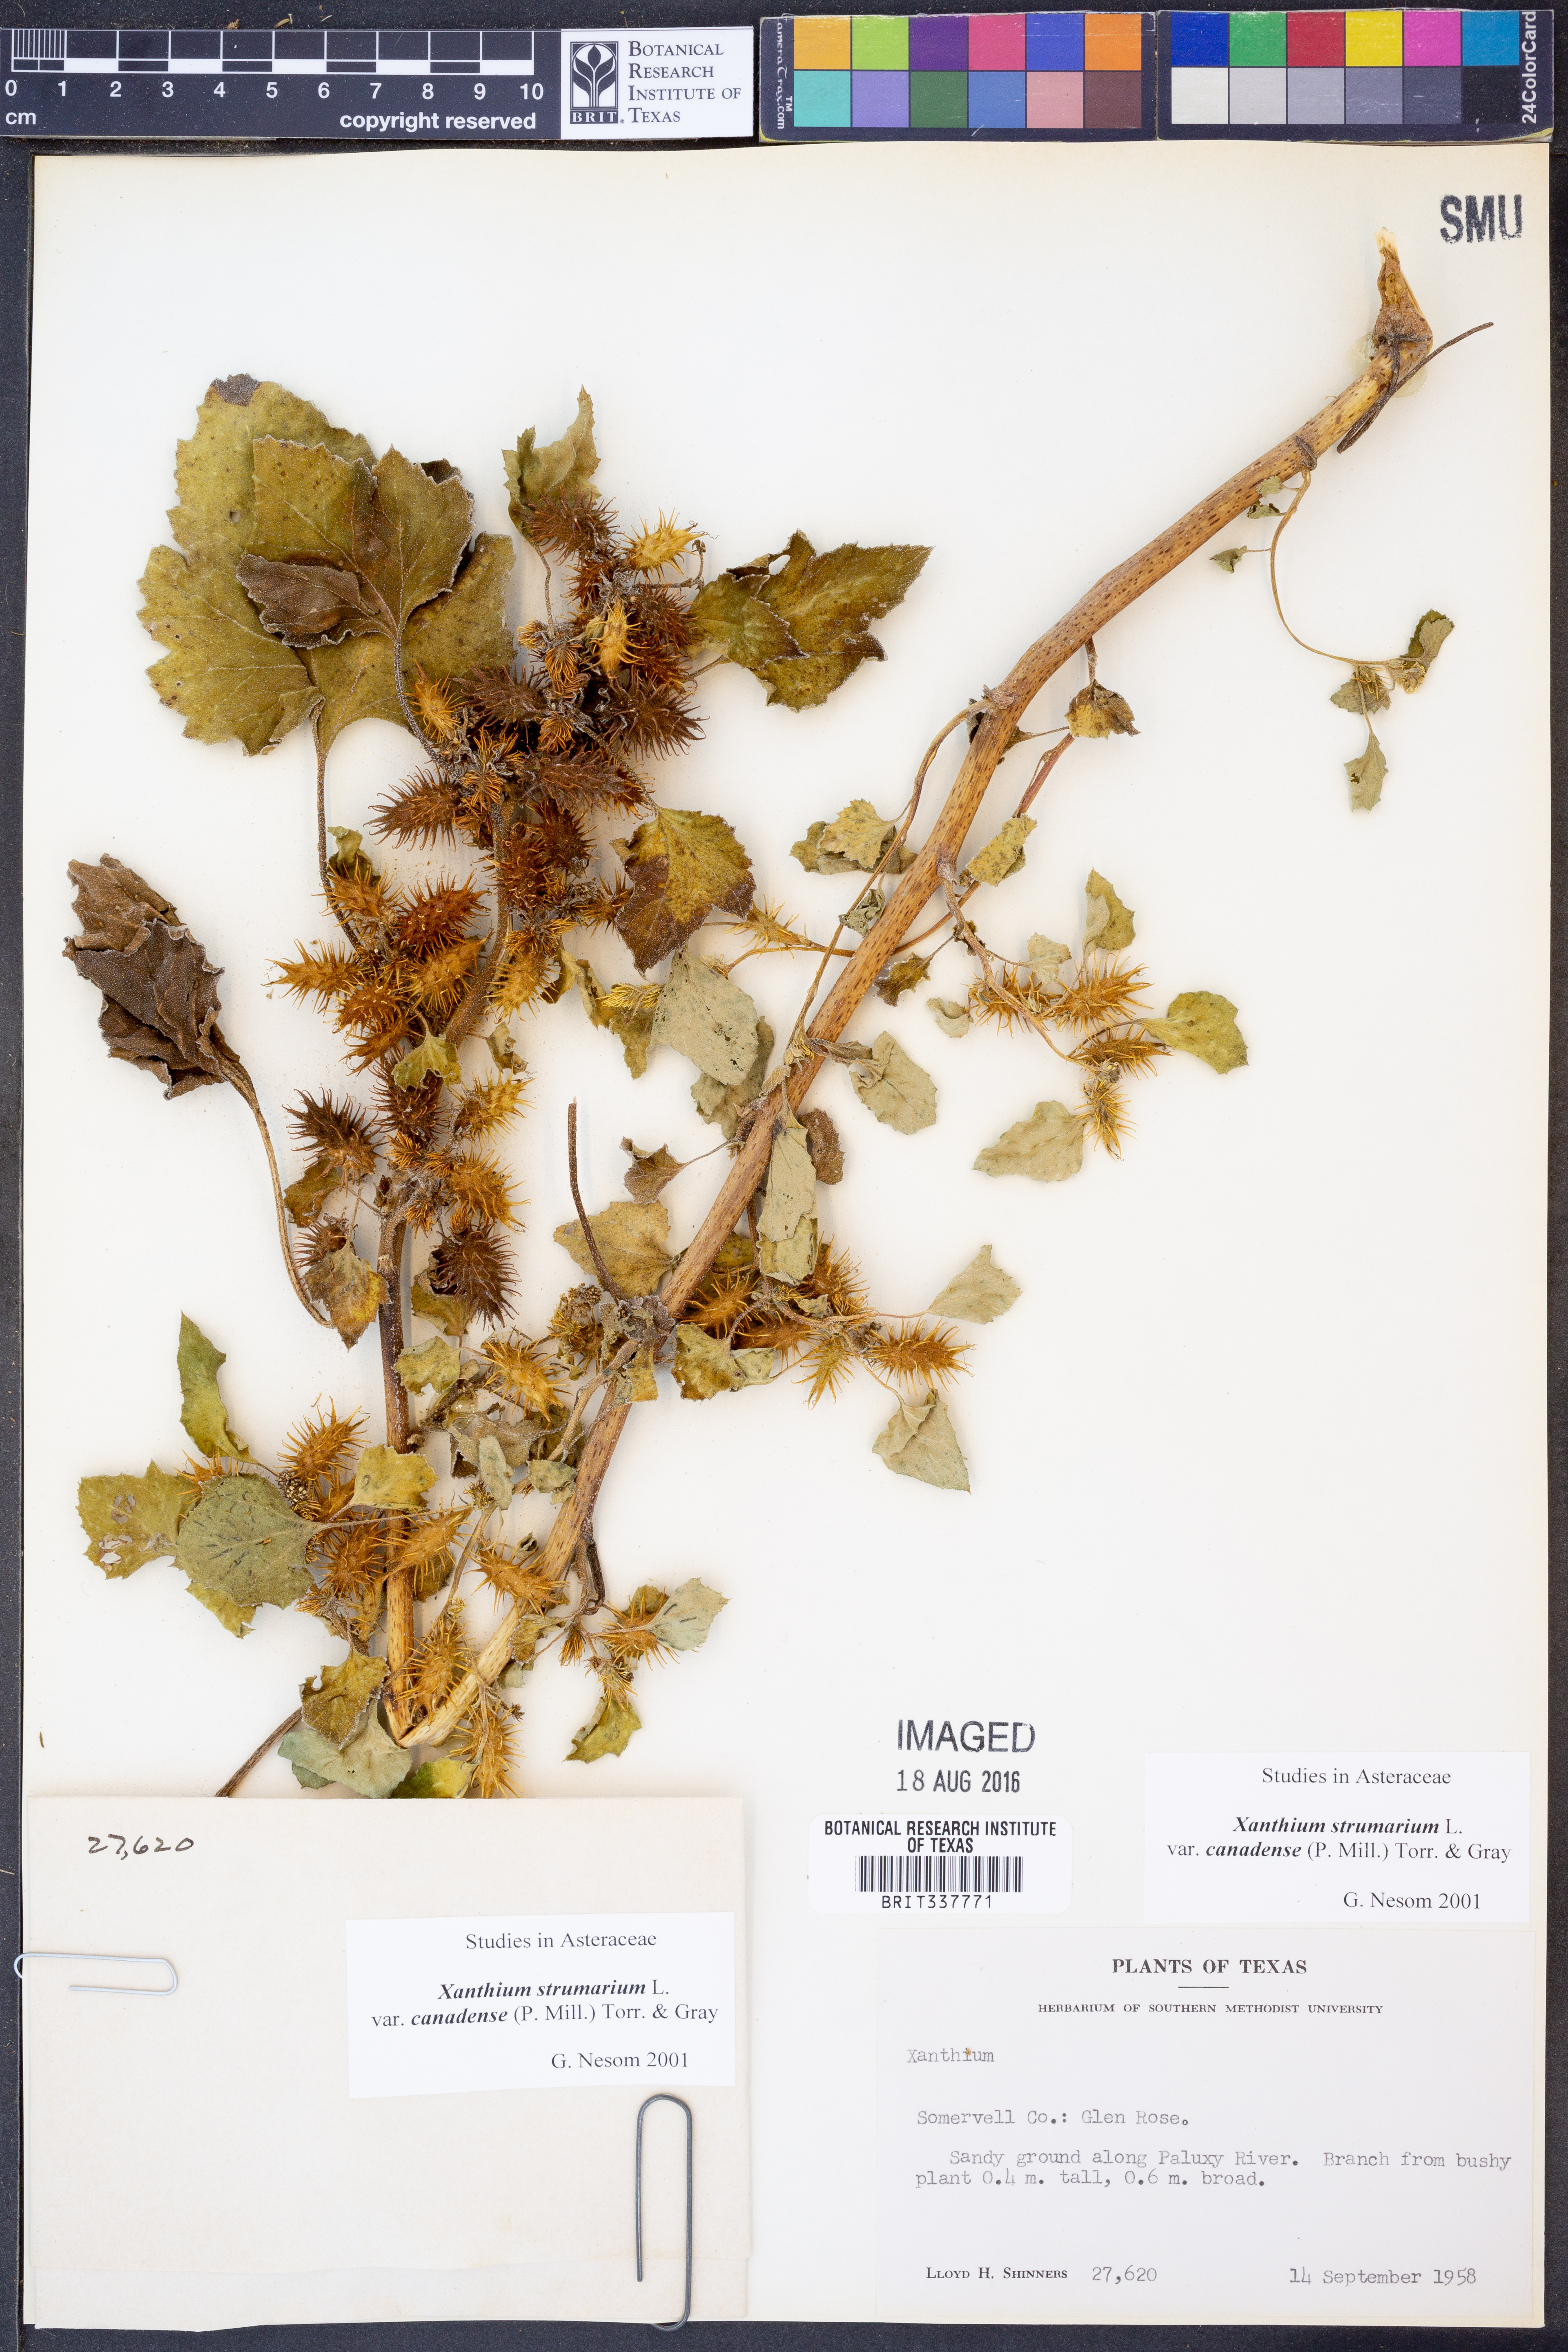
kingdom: Plantae
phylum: Tracheophyta
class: Magnoliopsida
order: Asterales
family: Asteraceae
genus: Xanthium
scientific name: Xanthium orientale
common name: Californian burr
